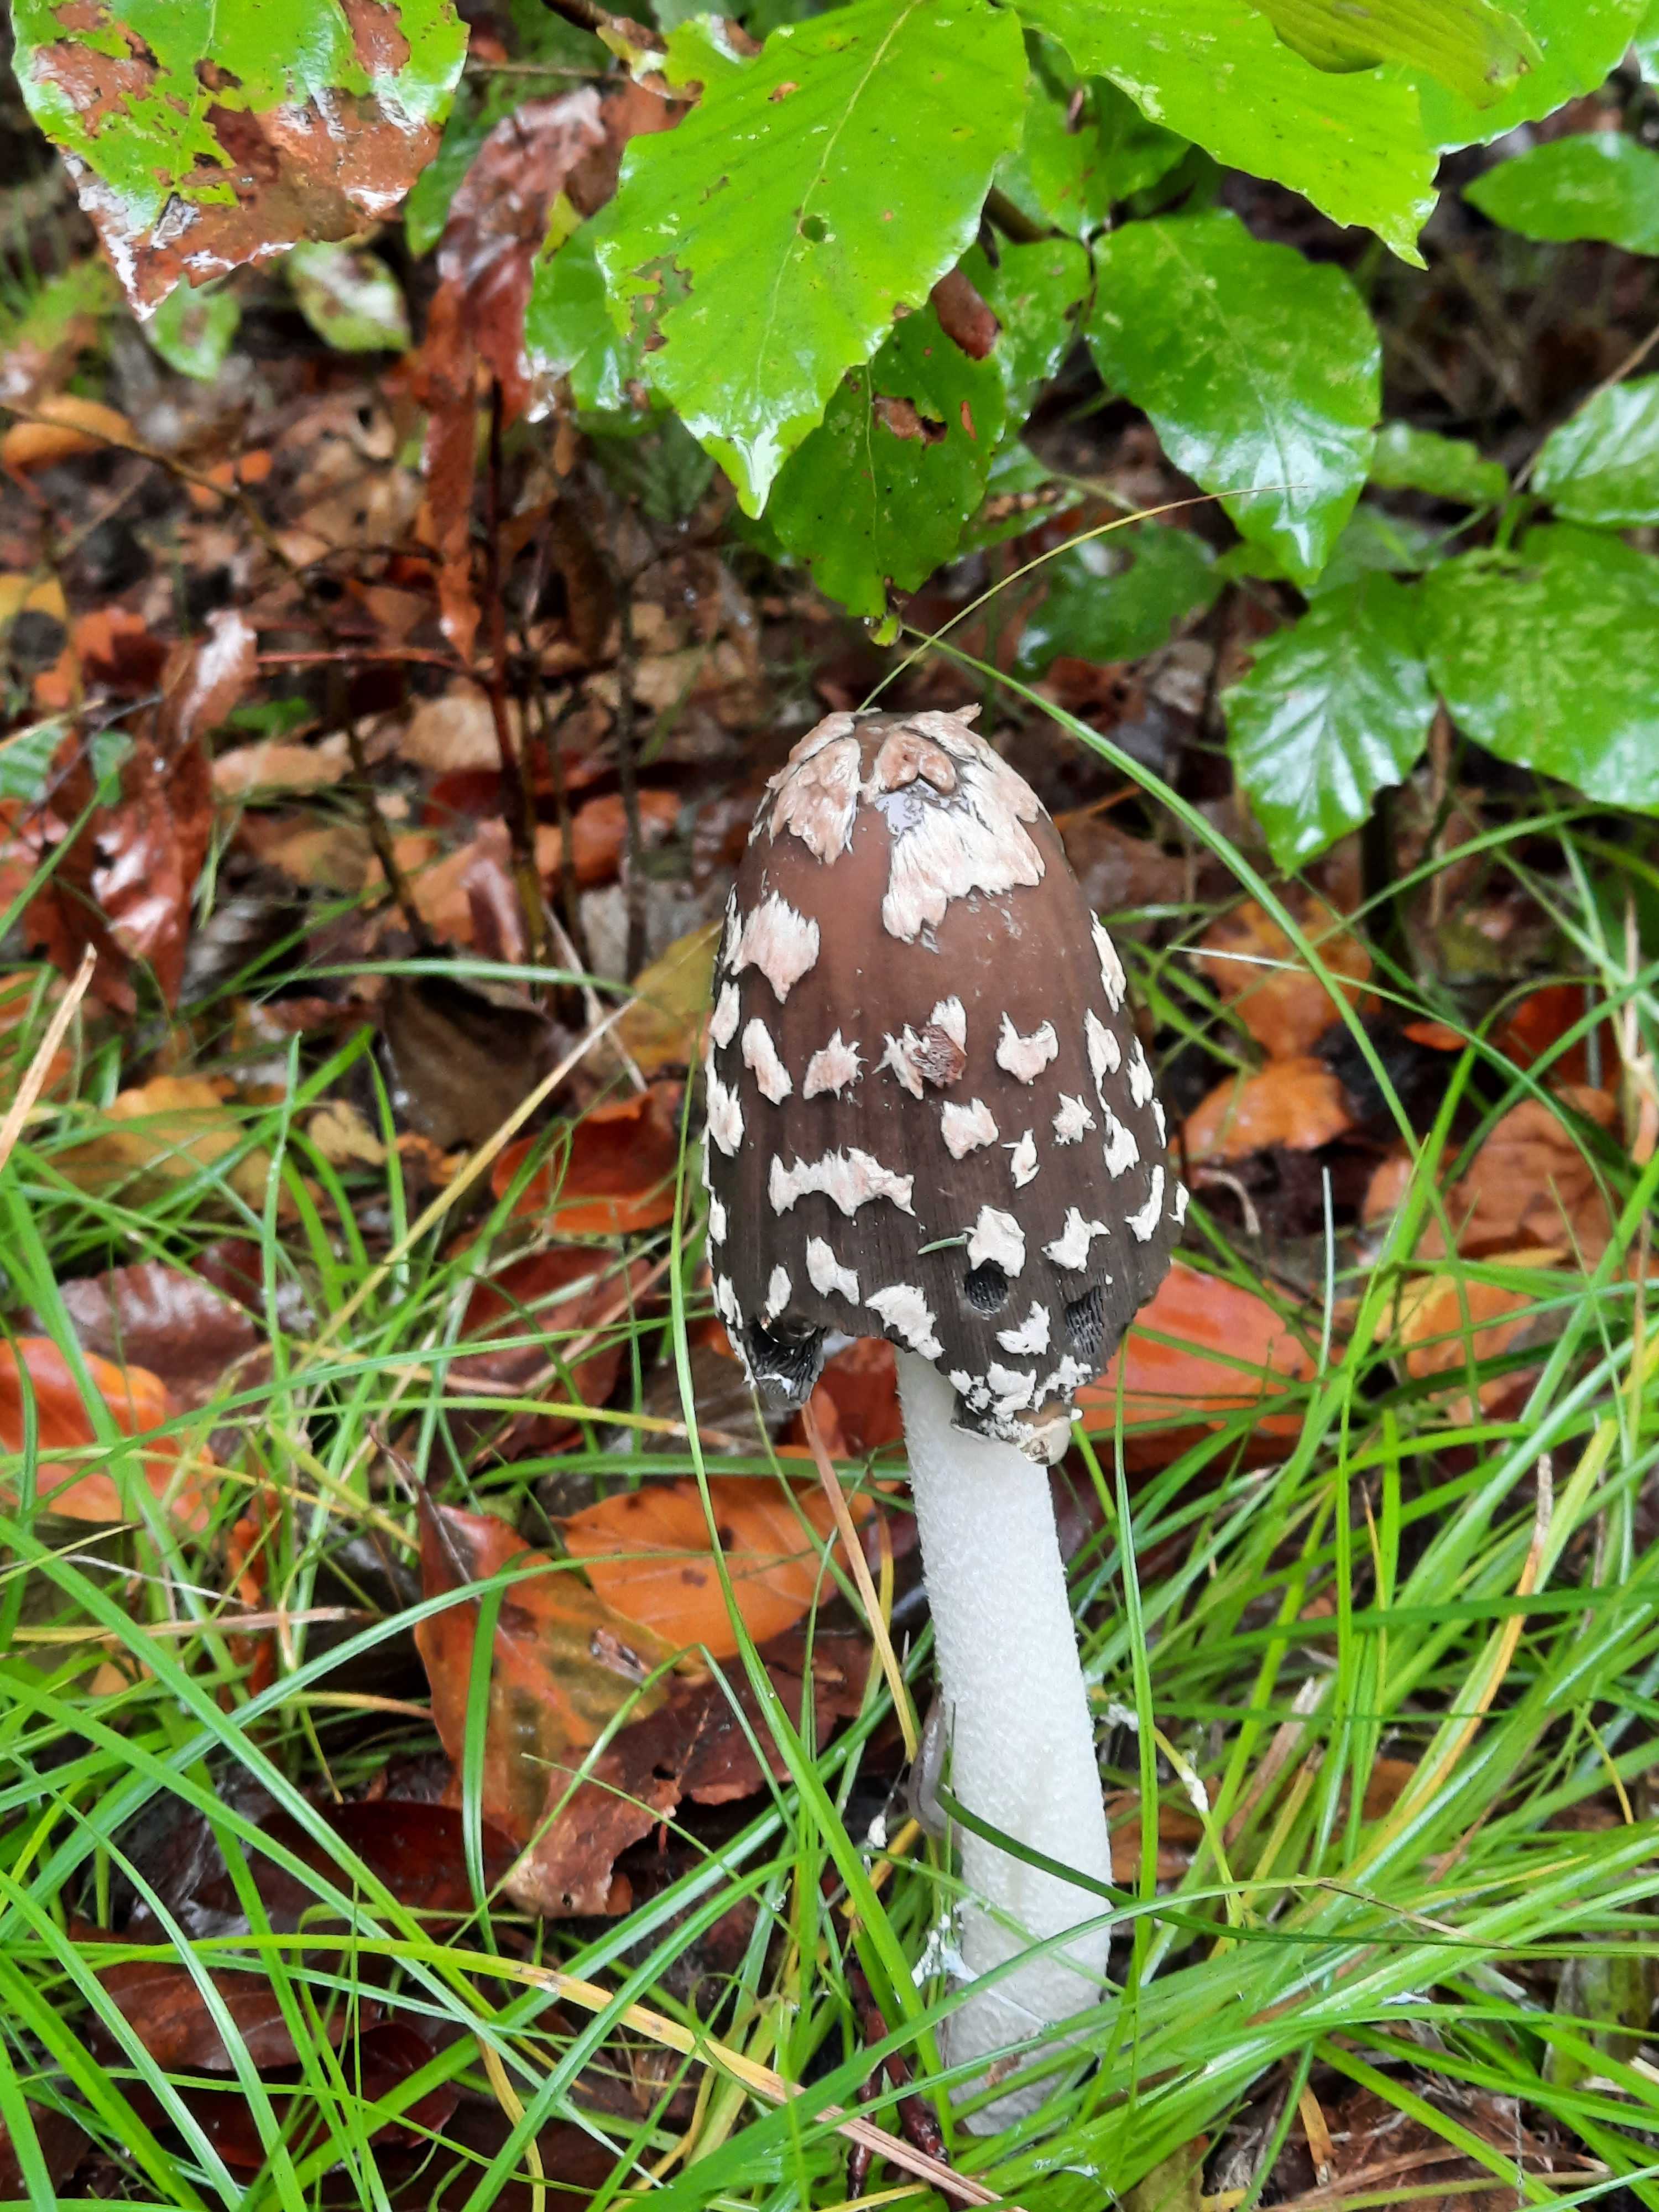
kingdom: Fungi
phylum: Basidiomycota
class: Agaricomycetes
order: Agaricales
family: Psathyrellaceae
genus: Coprinopsis
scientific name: Coprinopsis picacea
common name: skade-blækhat
